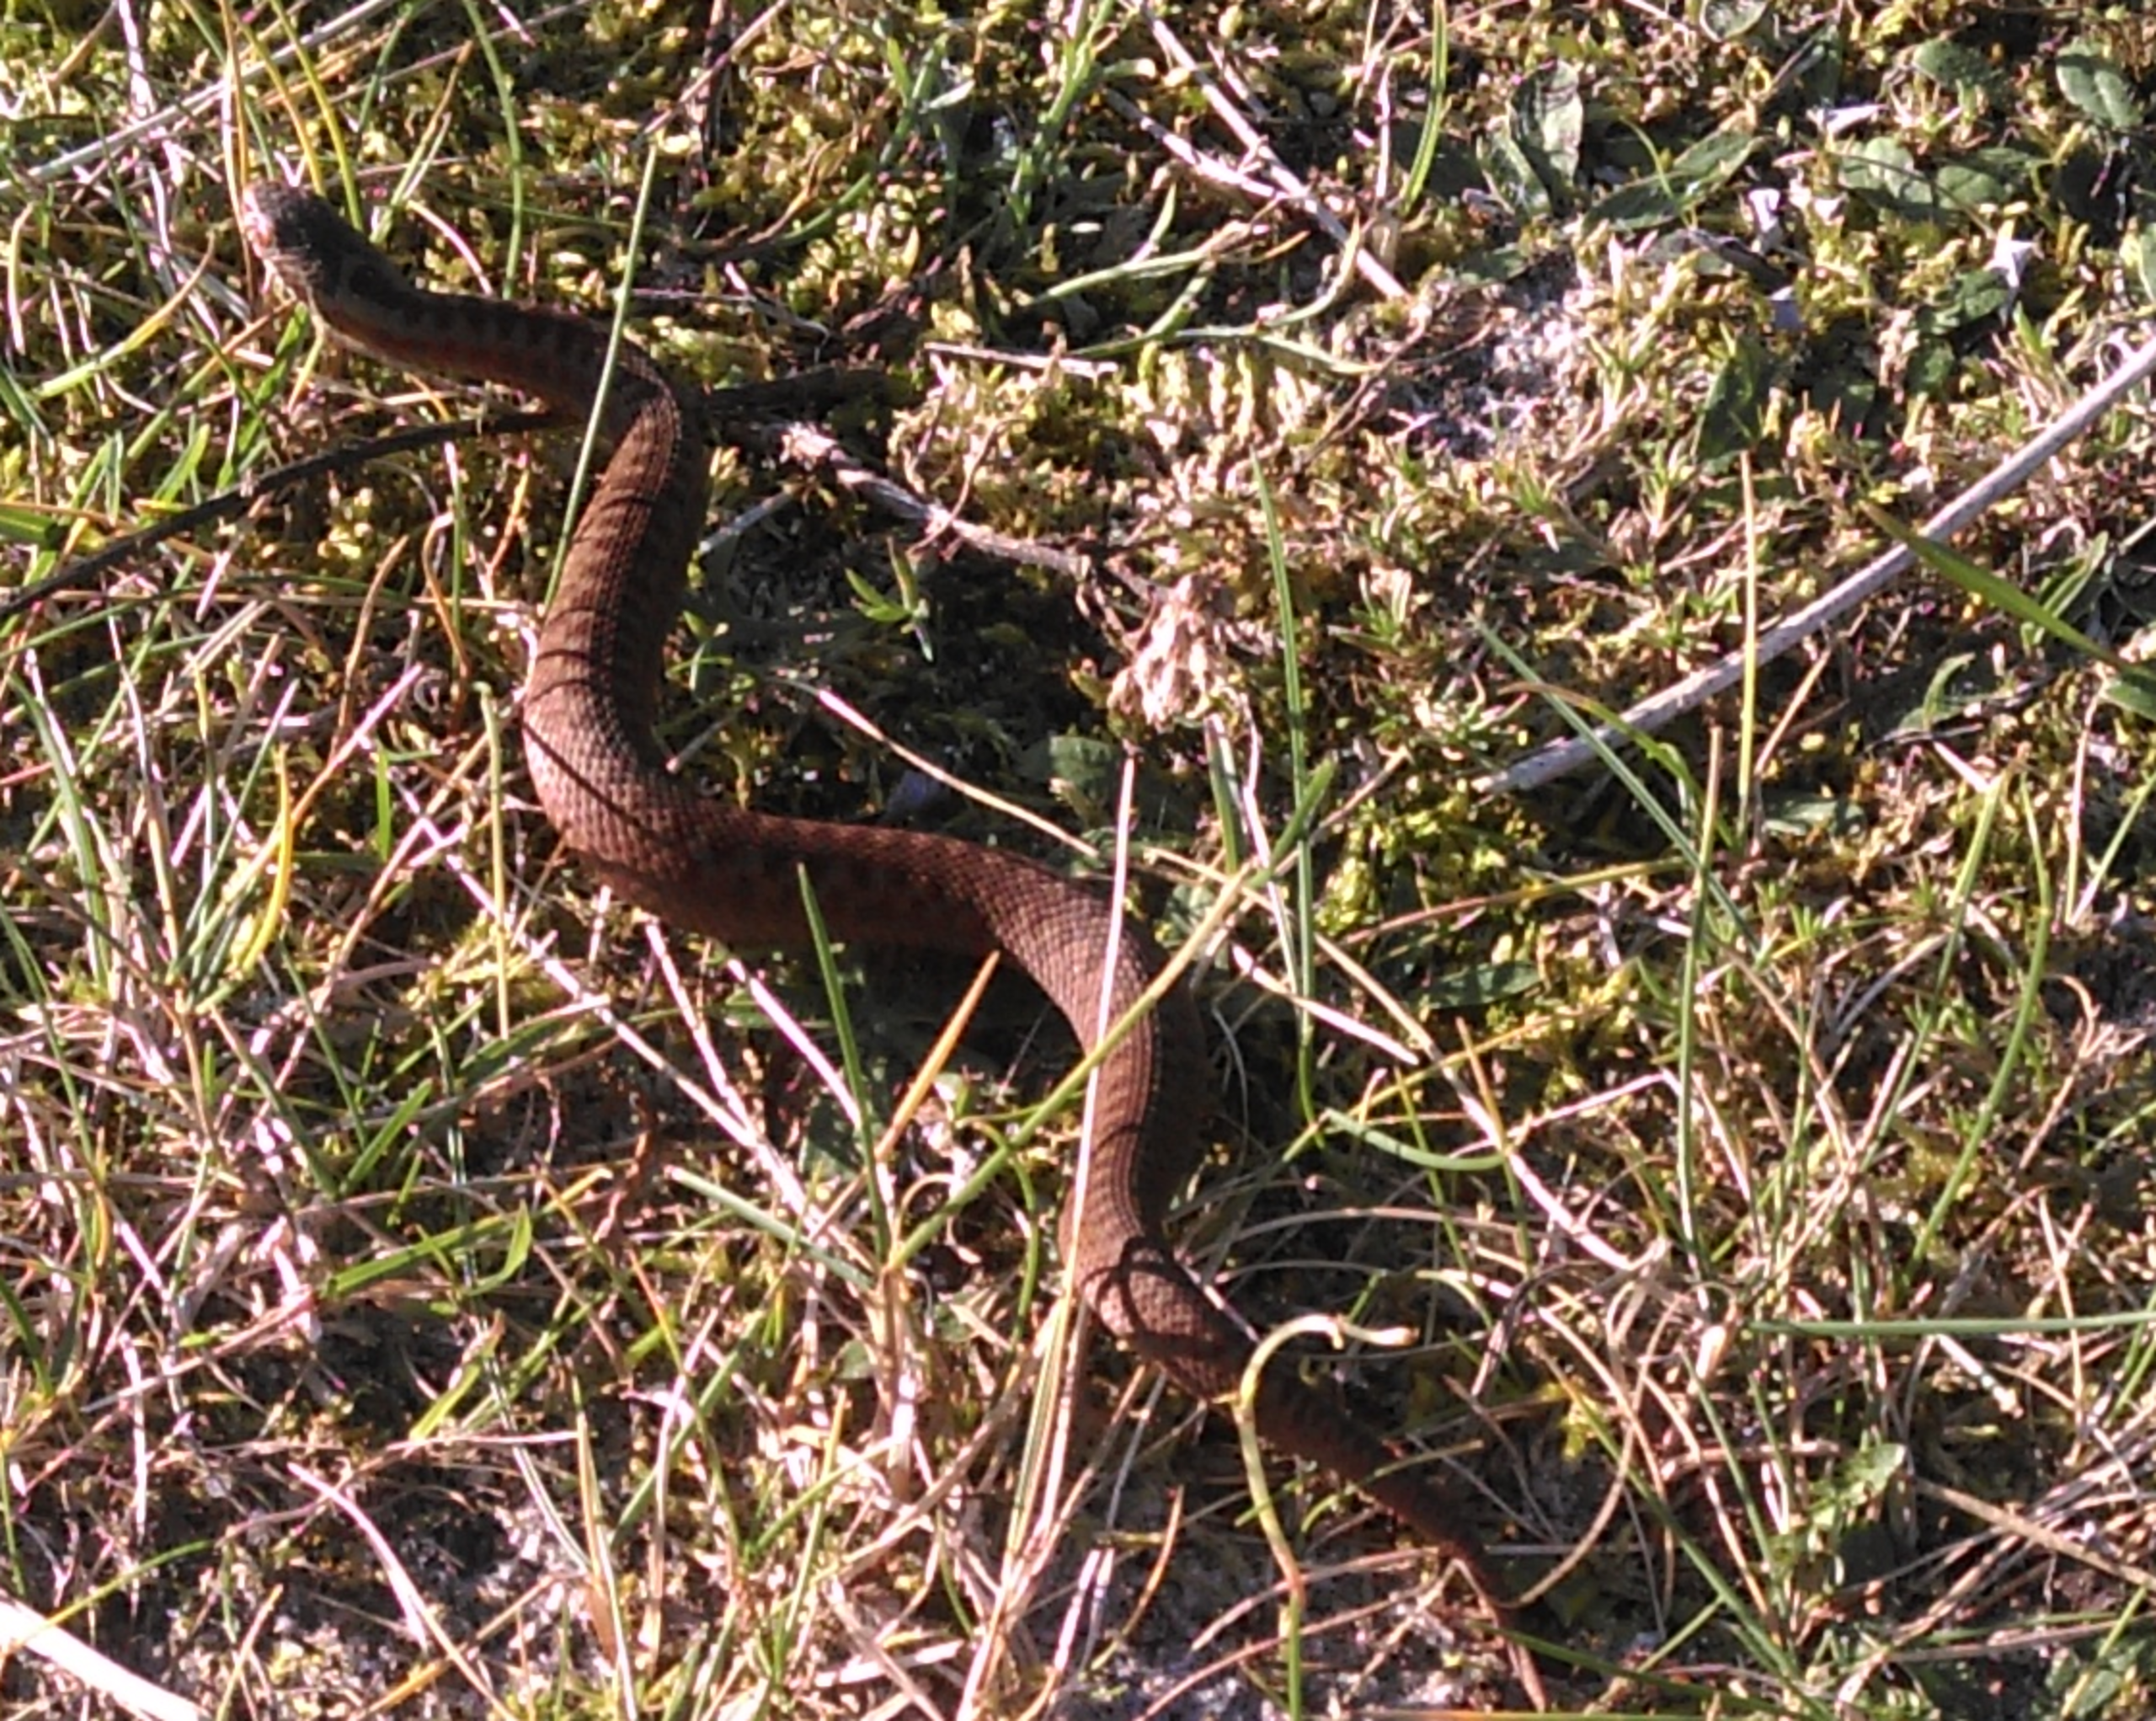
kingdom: Animalia
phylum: Chordata
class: Squamata
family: Viperidae
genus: Vipera
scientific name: Vipera berus
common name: Hugorm
